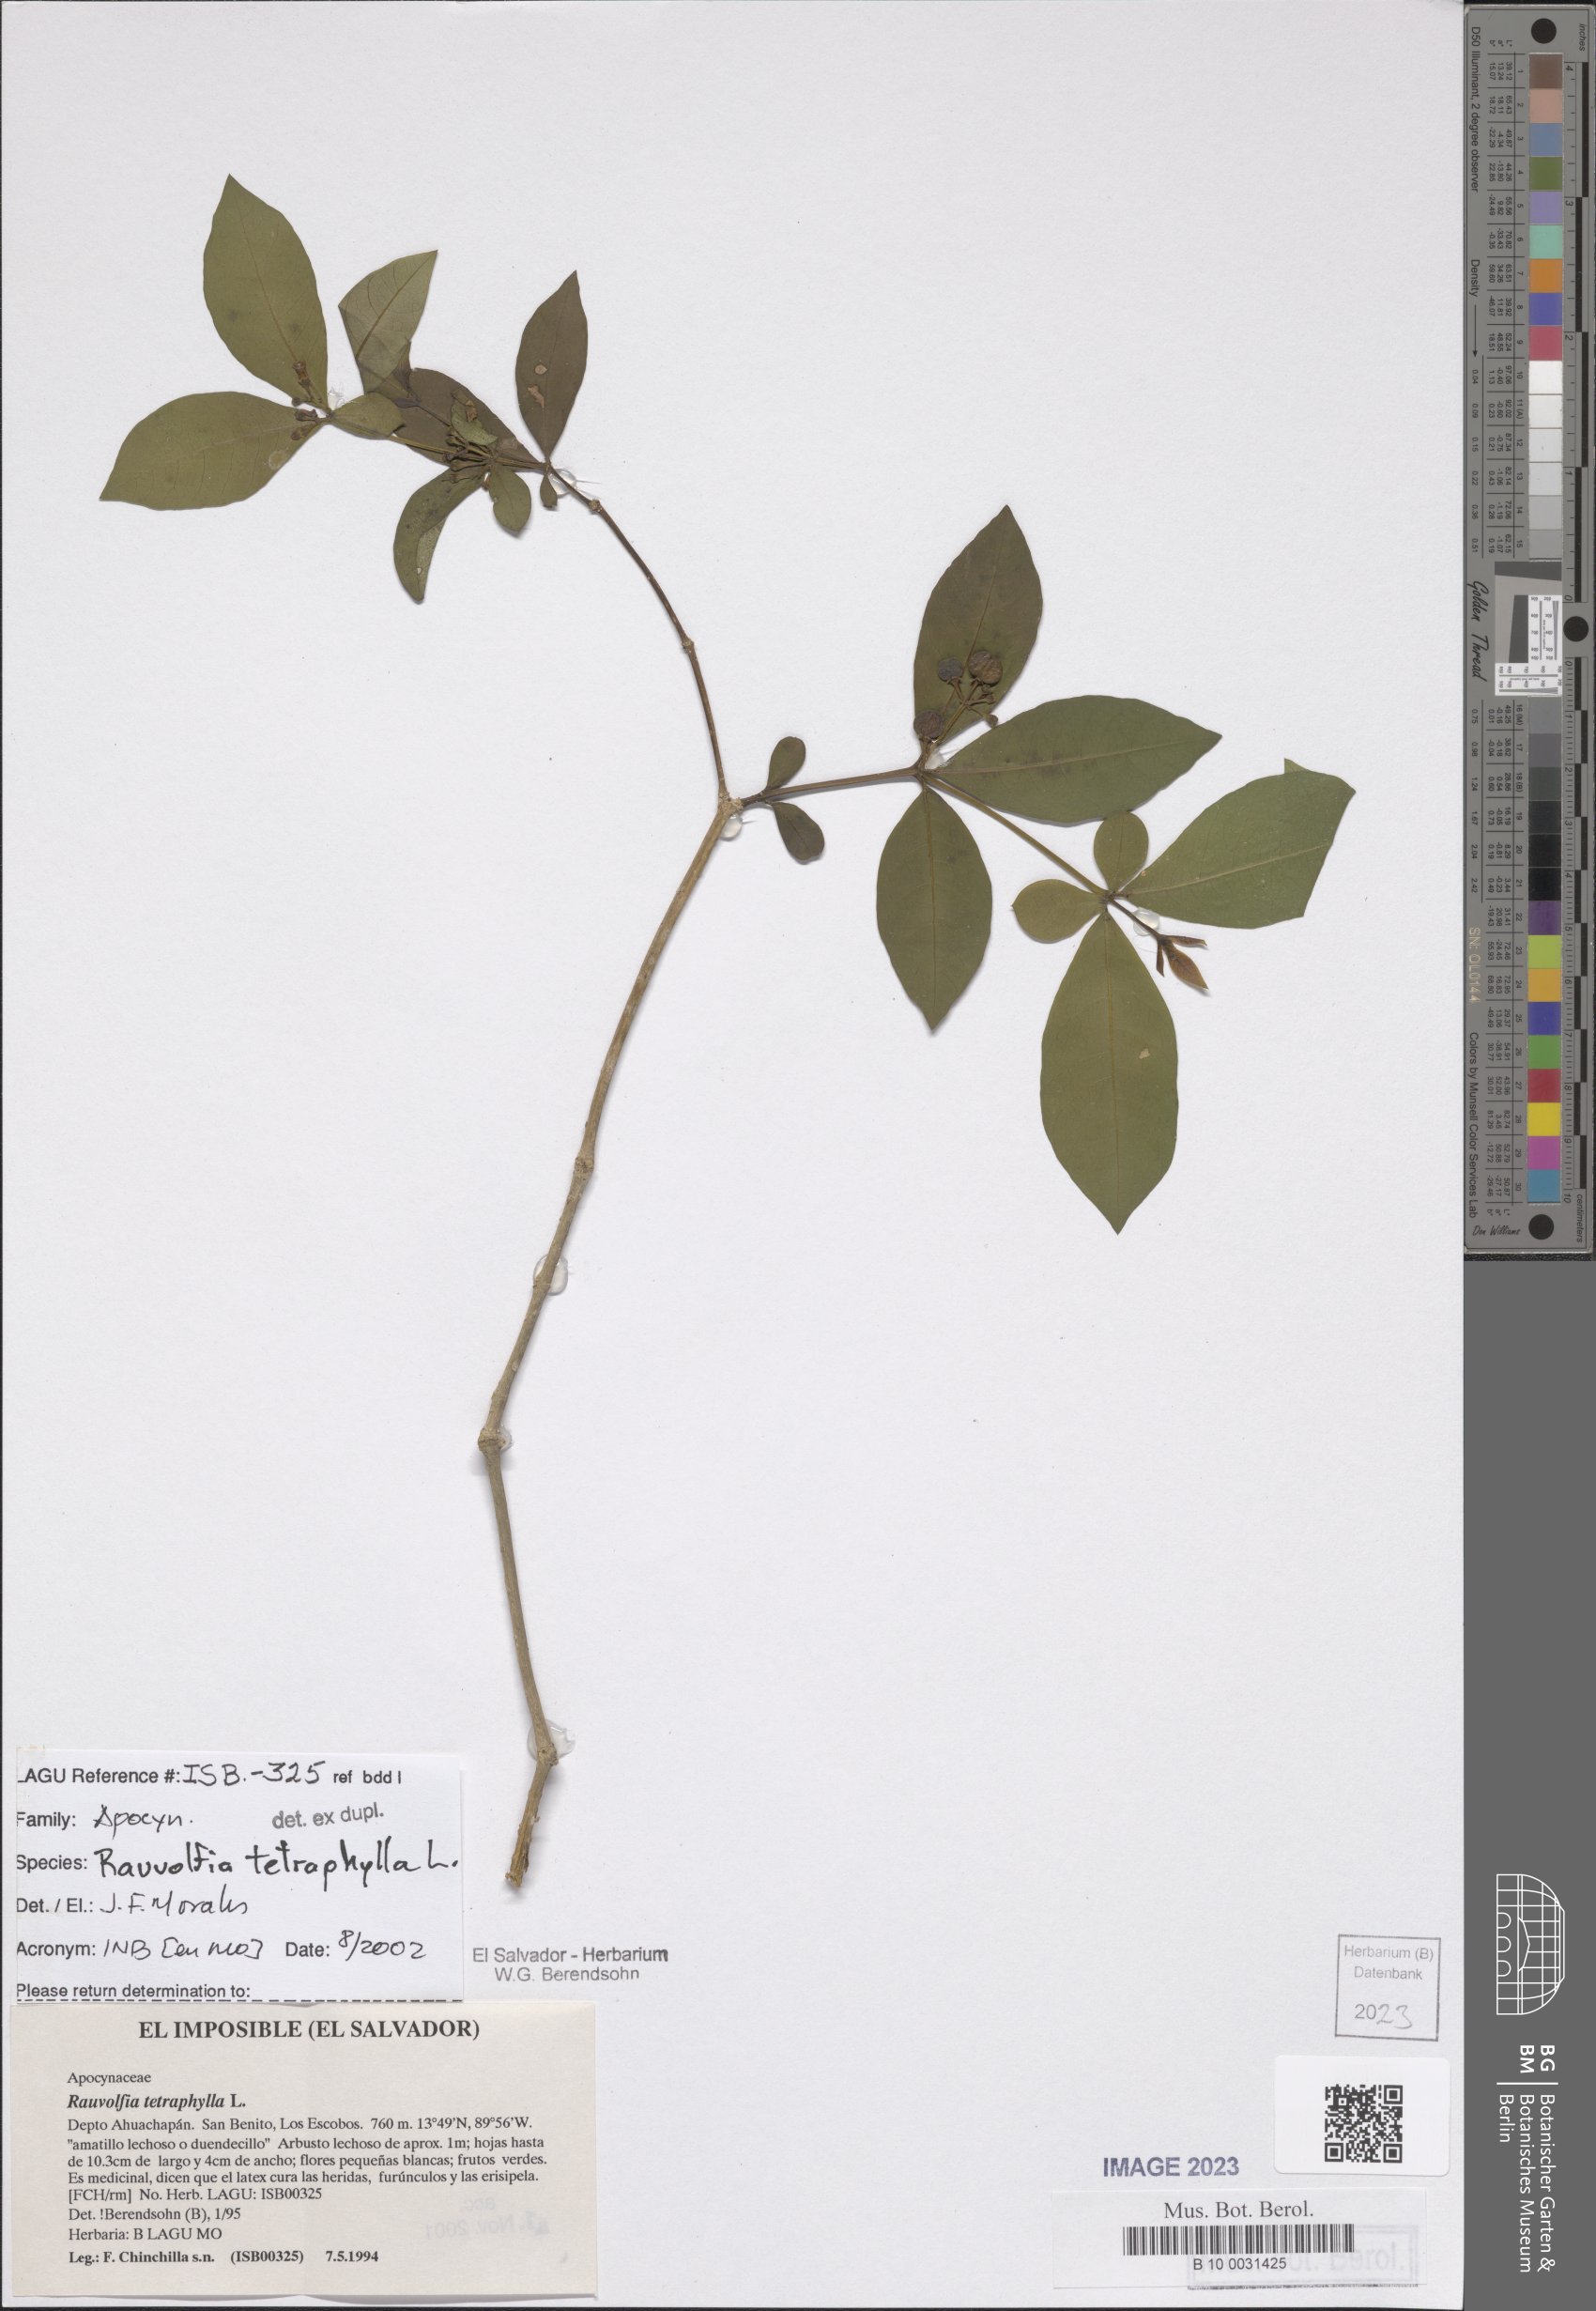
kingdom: Plantae
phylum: Tracheophyta
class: Magnoliopsida
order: Gentianales
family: Apocynaceae
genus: Rauvolfia
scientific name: Rauvolfia tetraphylla
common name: Four-leaf devil-pepper
